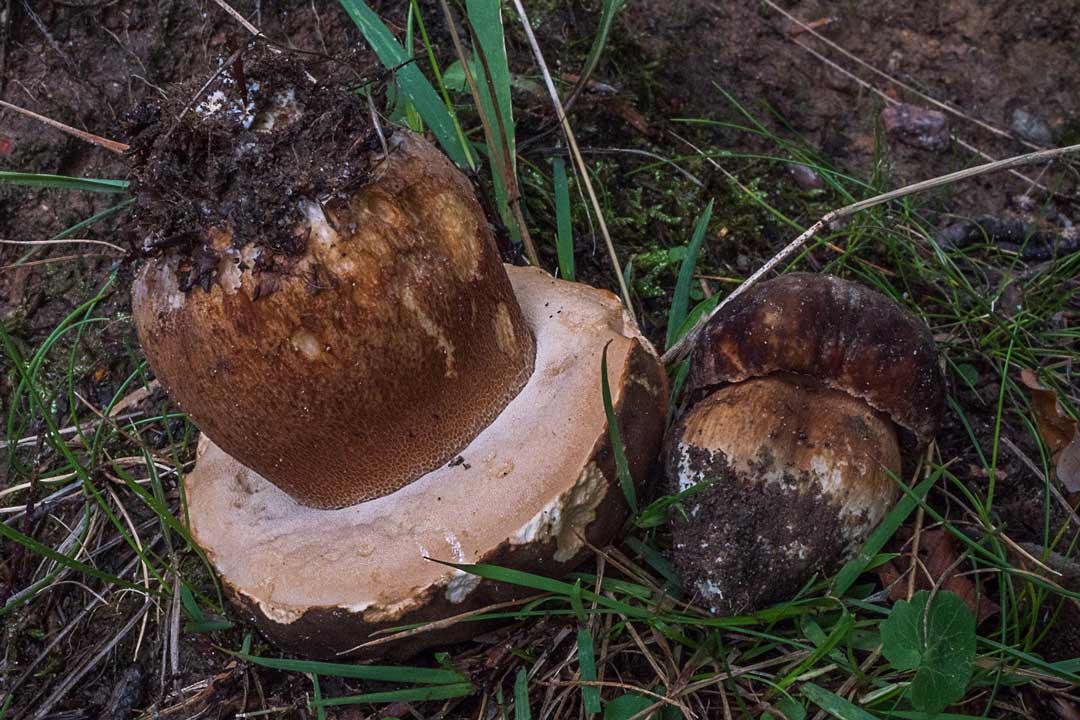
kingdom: Fungi
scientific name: Fungi
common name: bronze-rørhat
